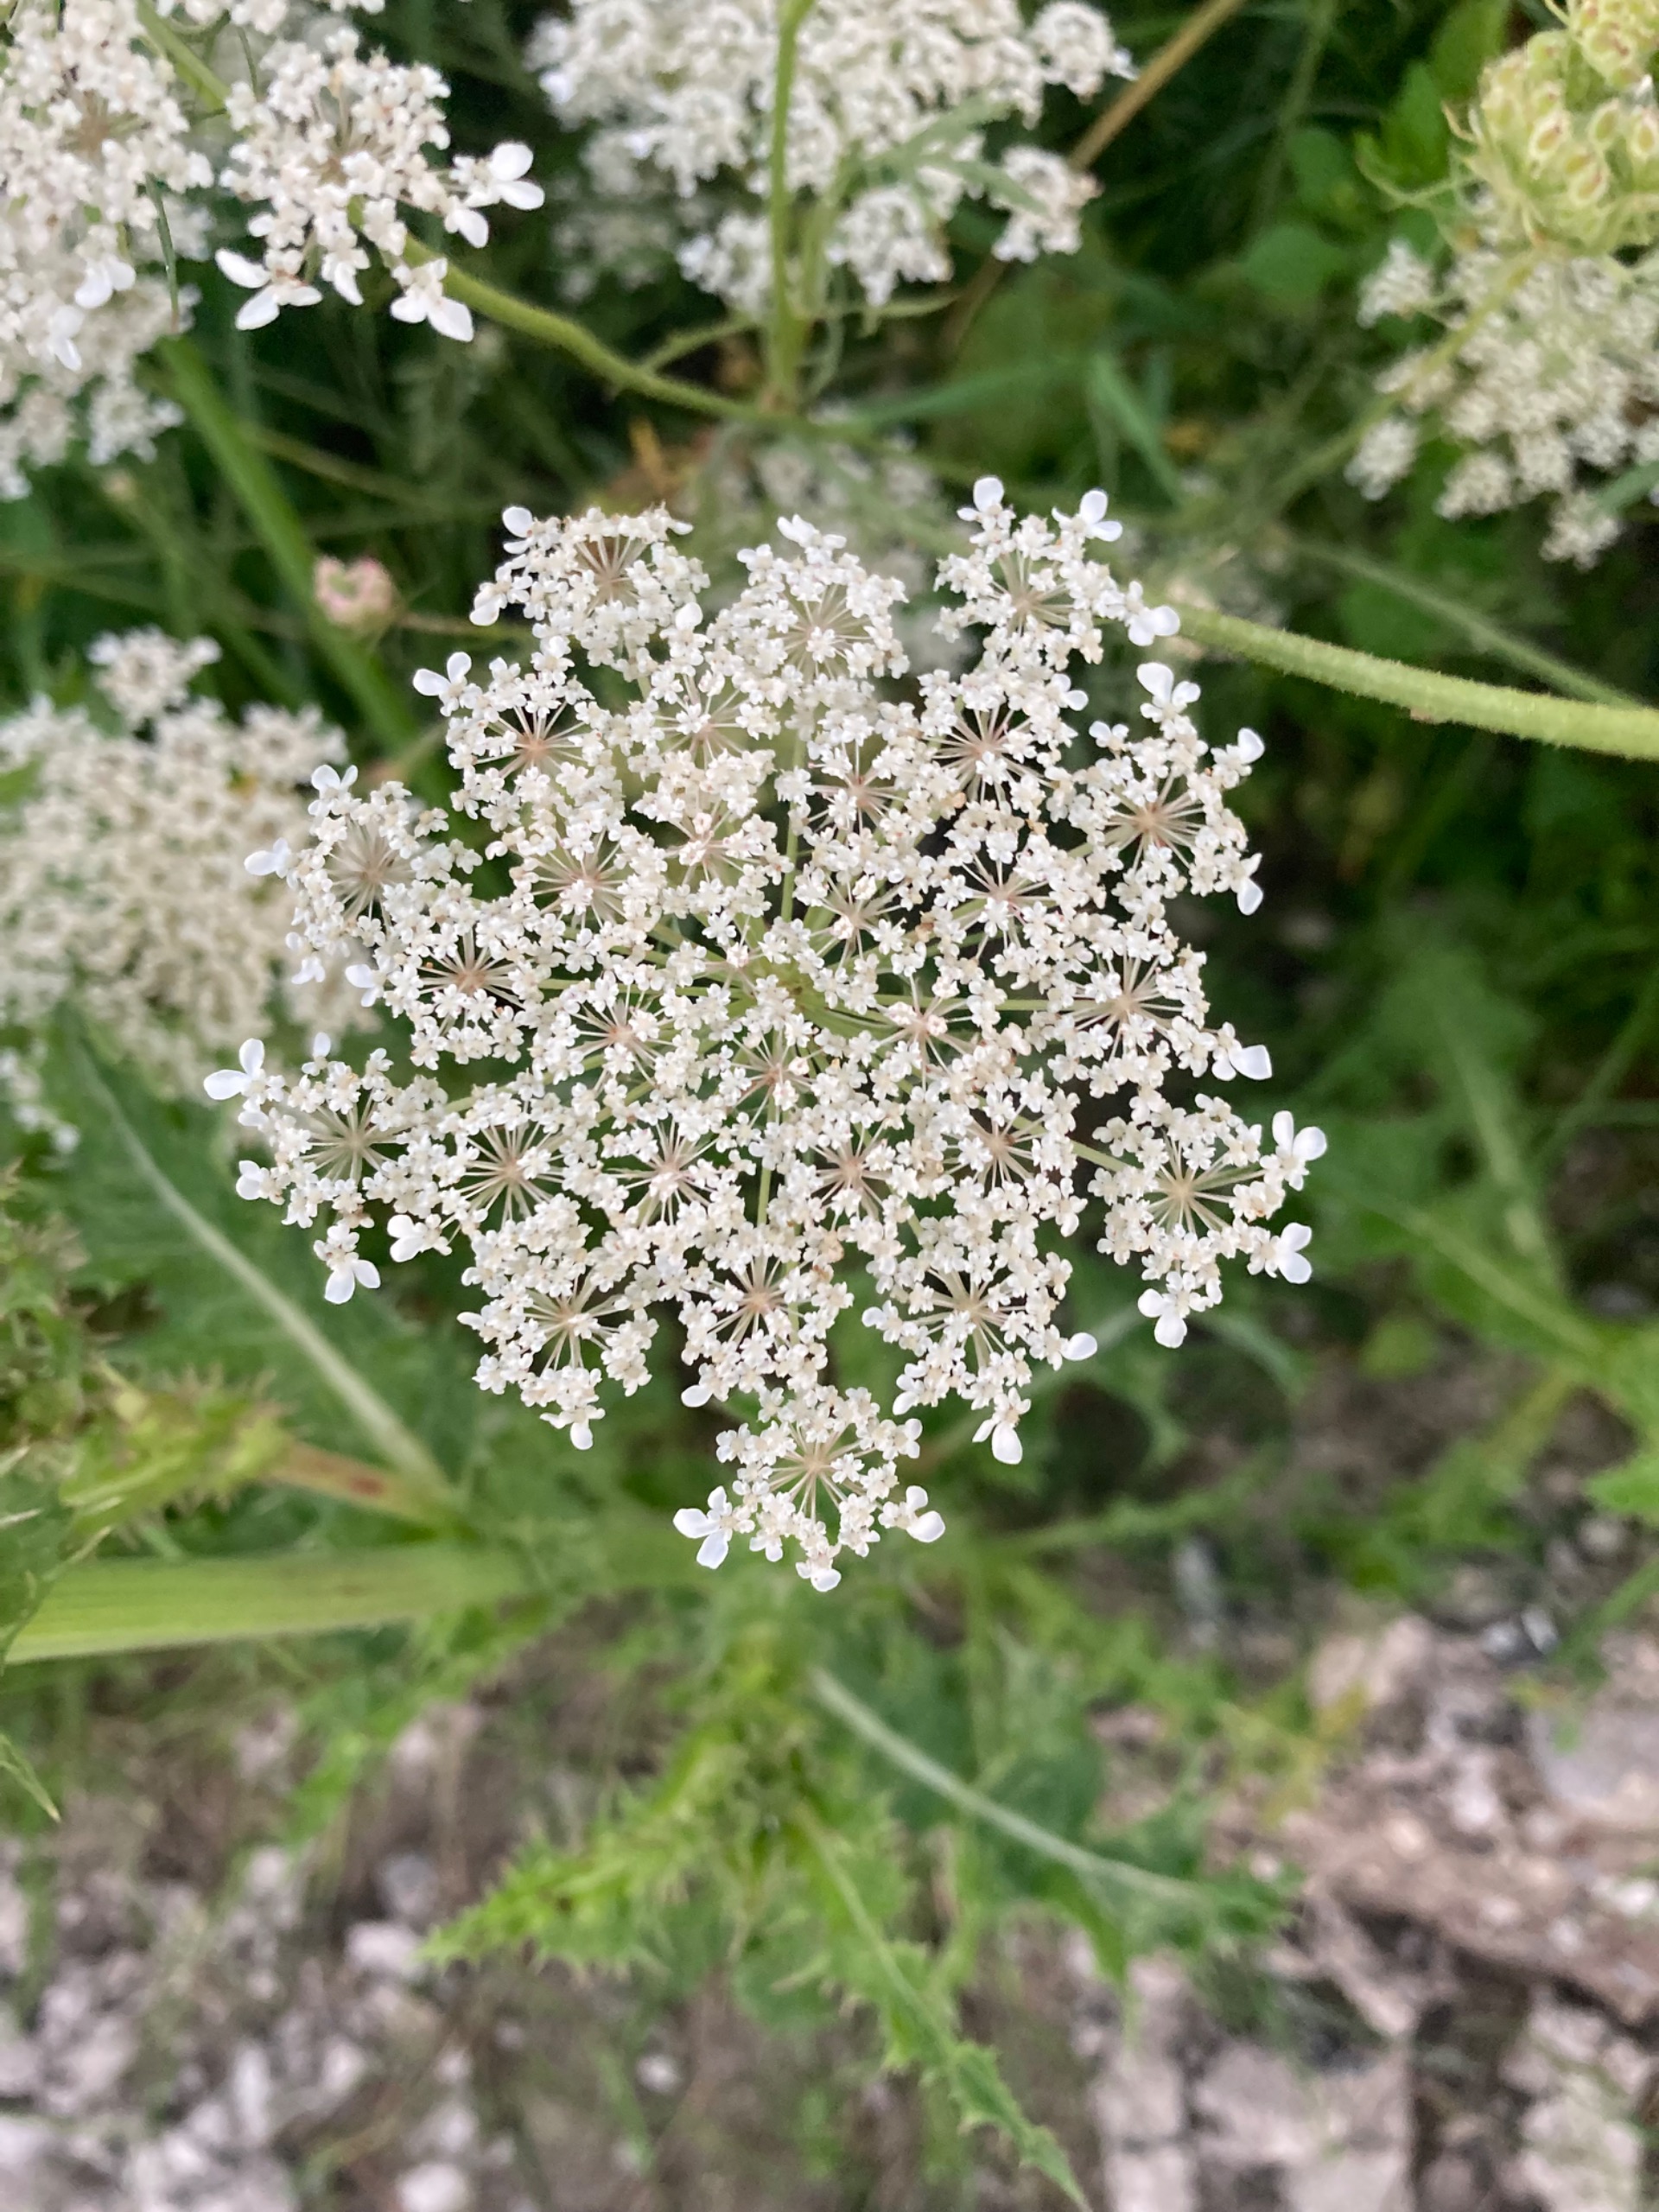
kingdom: Plantae
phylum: Tracheophyta
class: Magnoliopsida
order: Apiales
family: Apiaceae
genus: Daucus
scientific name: Daucus carota
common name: Gulerod
